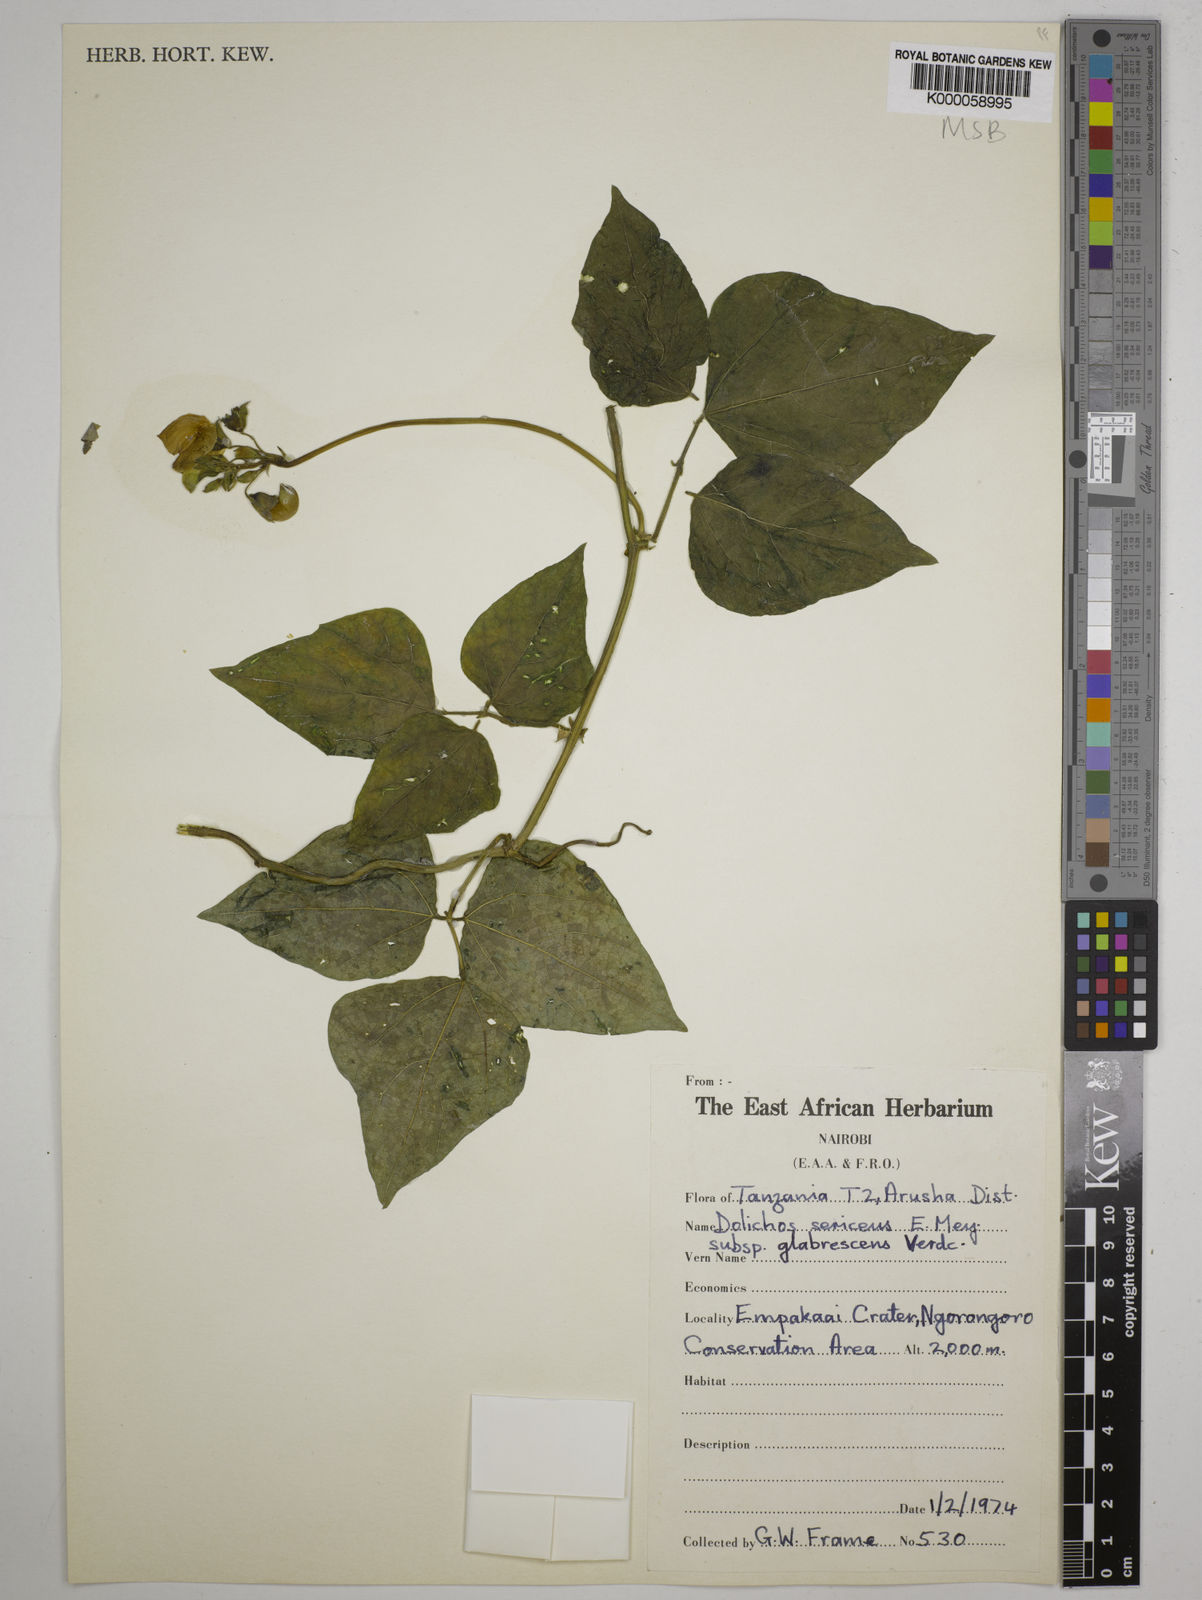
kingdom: Plantae
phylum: Tracheophyta
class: Magnoliopsida
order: Fabales
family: Fabaceae
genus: Dolichos
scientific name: Dolichos sericeus
